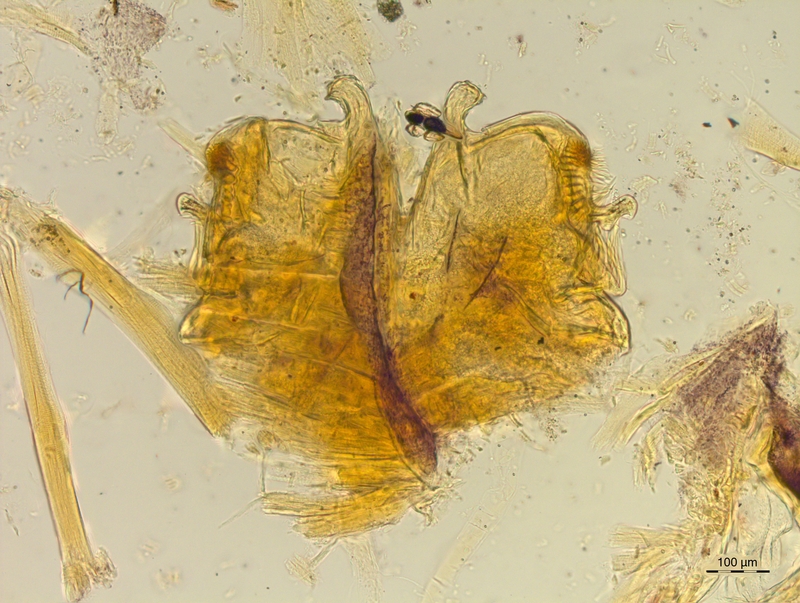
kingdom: Animalia
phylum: Arthropoda
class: Diplopoda
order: Chordeumatida
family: Craspedosomatidae
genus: Craspedosoma
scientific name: Craspedosoma slavum
